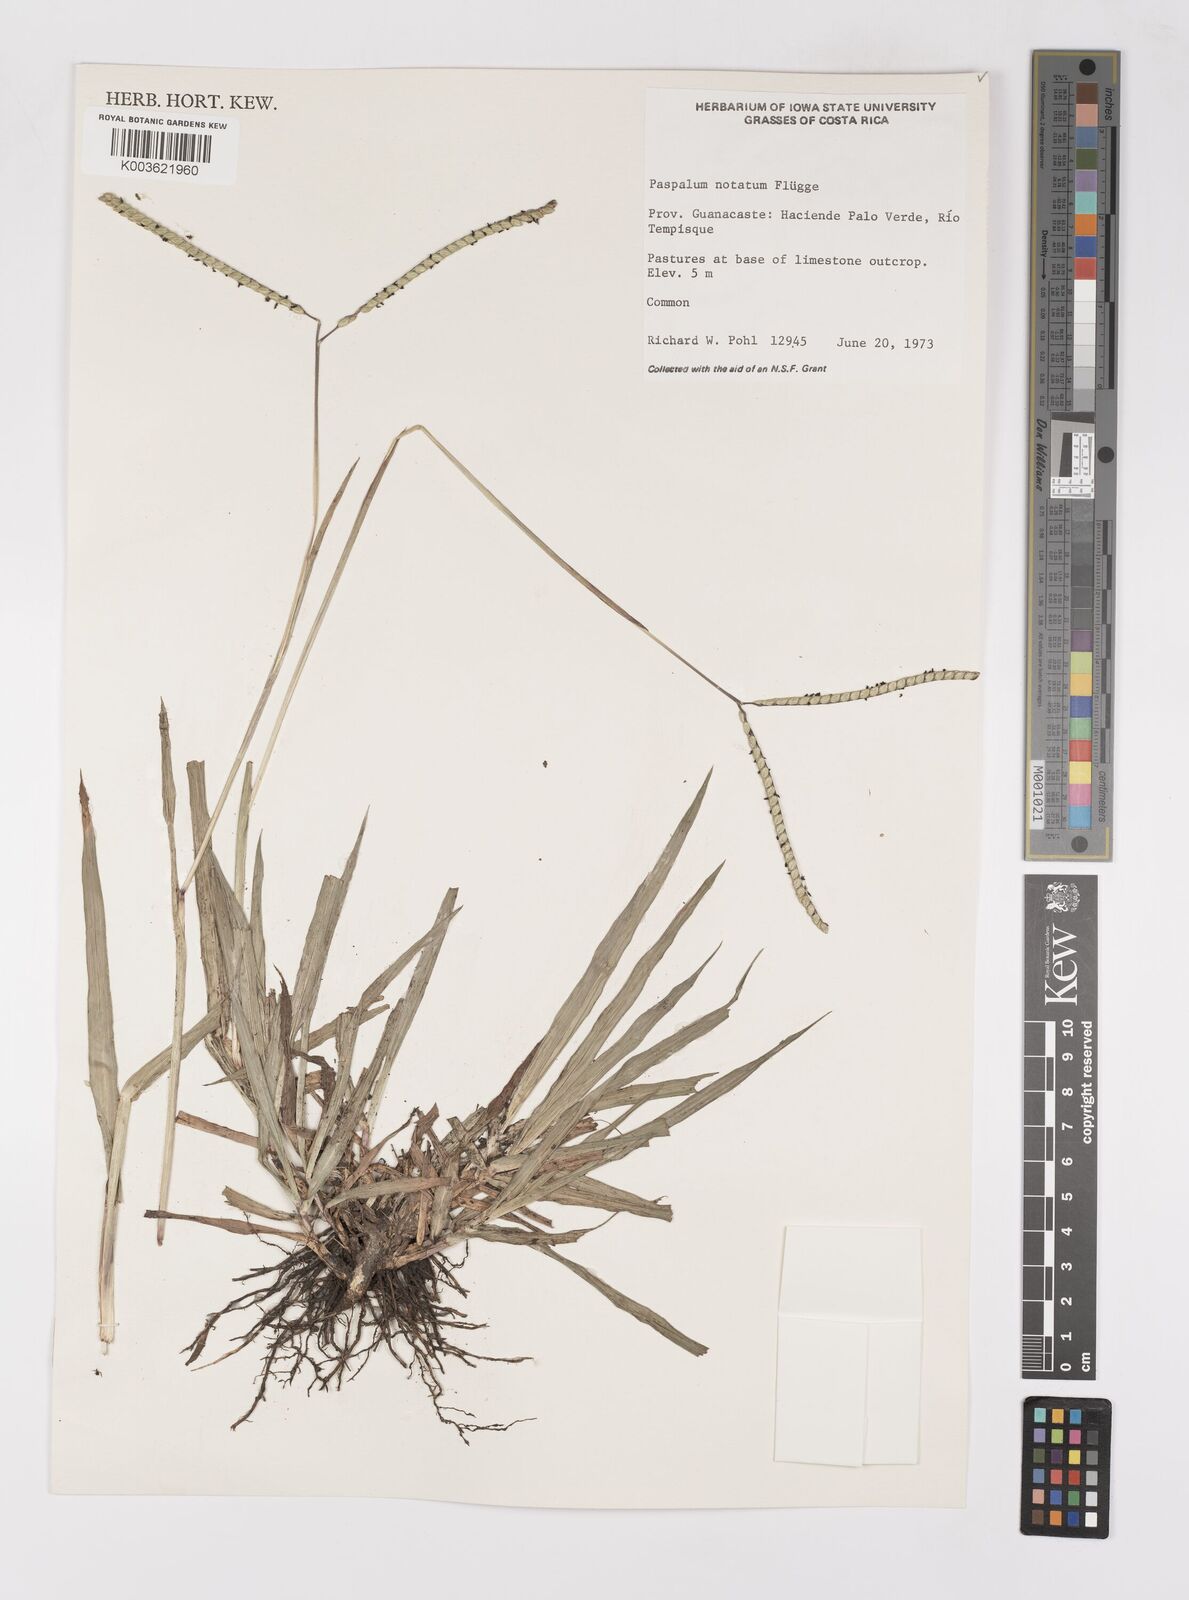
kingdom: Plantae
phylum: Tracheophyta
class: Liliopsida
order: Poales
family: Poaceae
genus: Paspalum
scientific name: Paspalum notatum
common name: Bahiagrass
